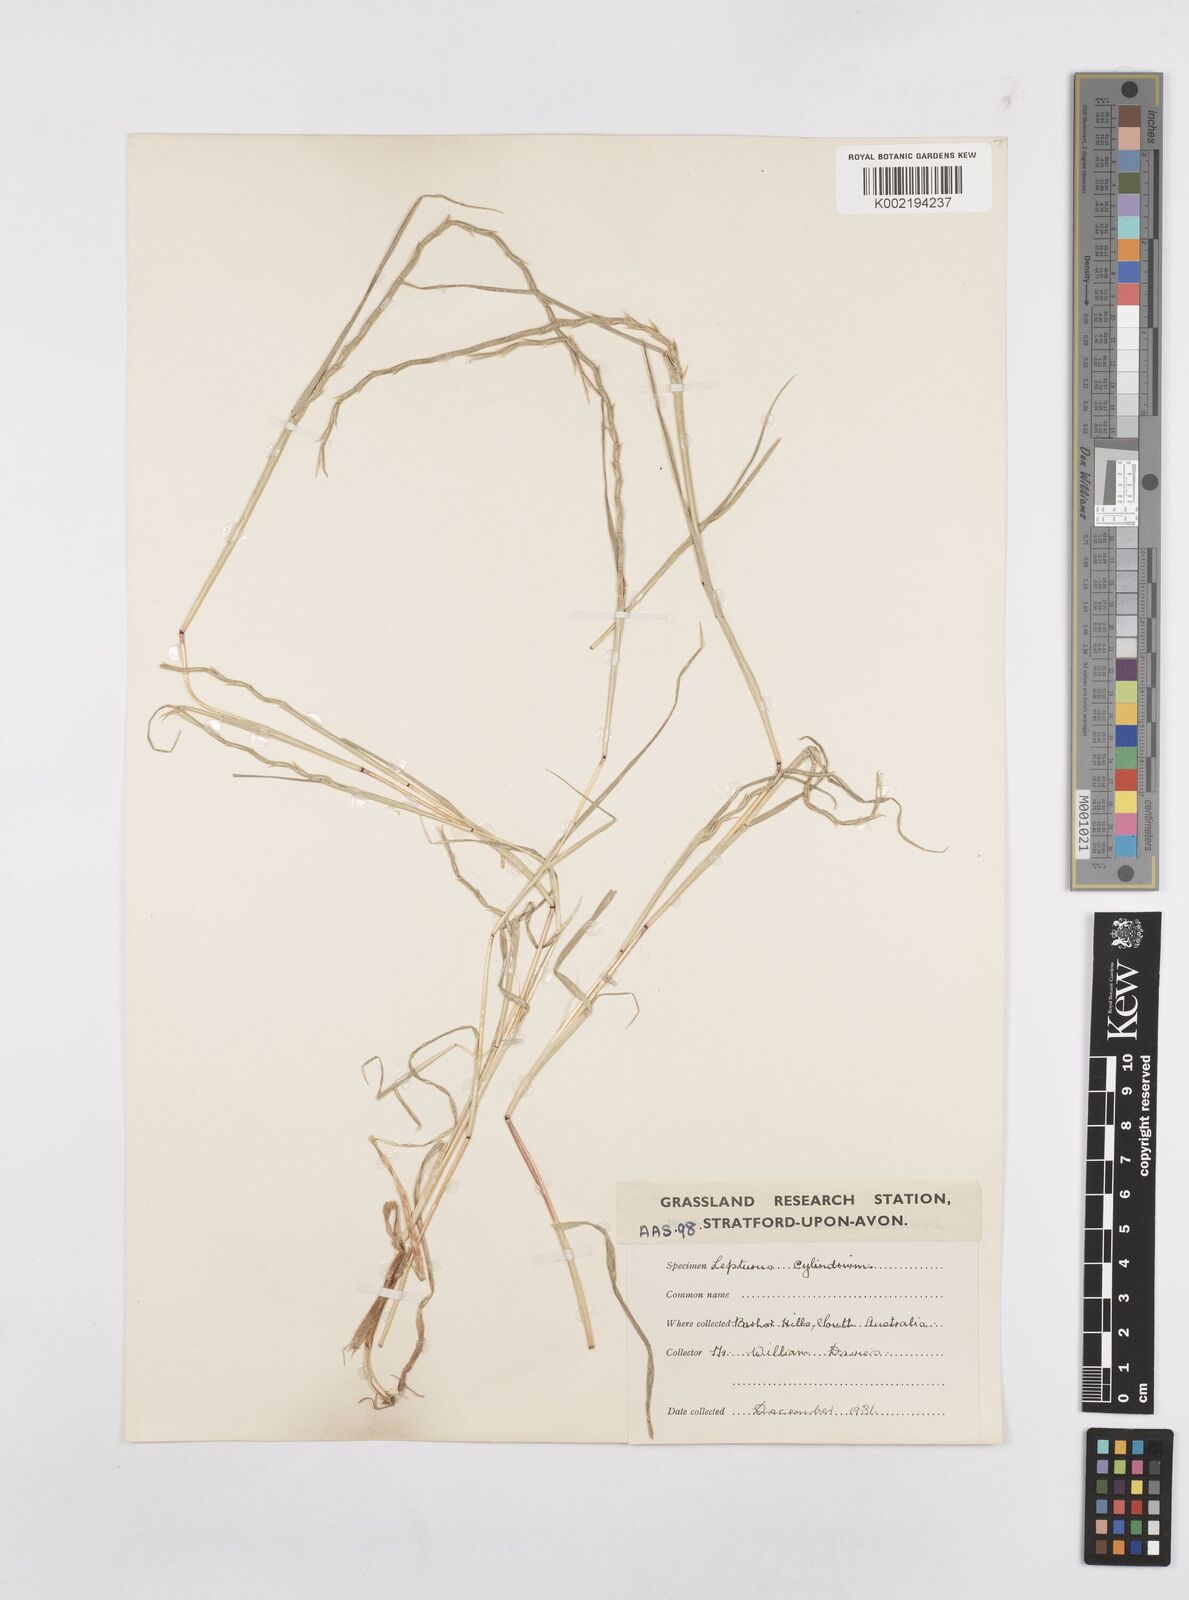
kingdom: Plantae
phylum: Tracheophyta
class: Liliopsida
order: Poales
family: Poaceae
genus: Parapholis
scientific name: Parapholis cylindrica
